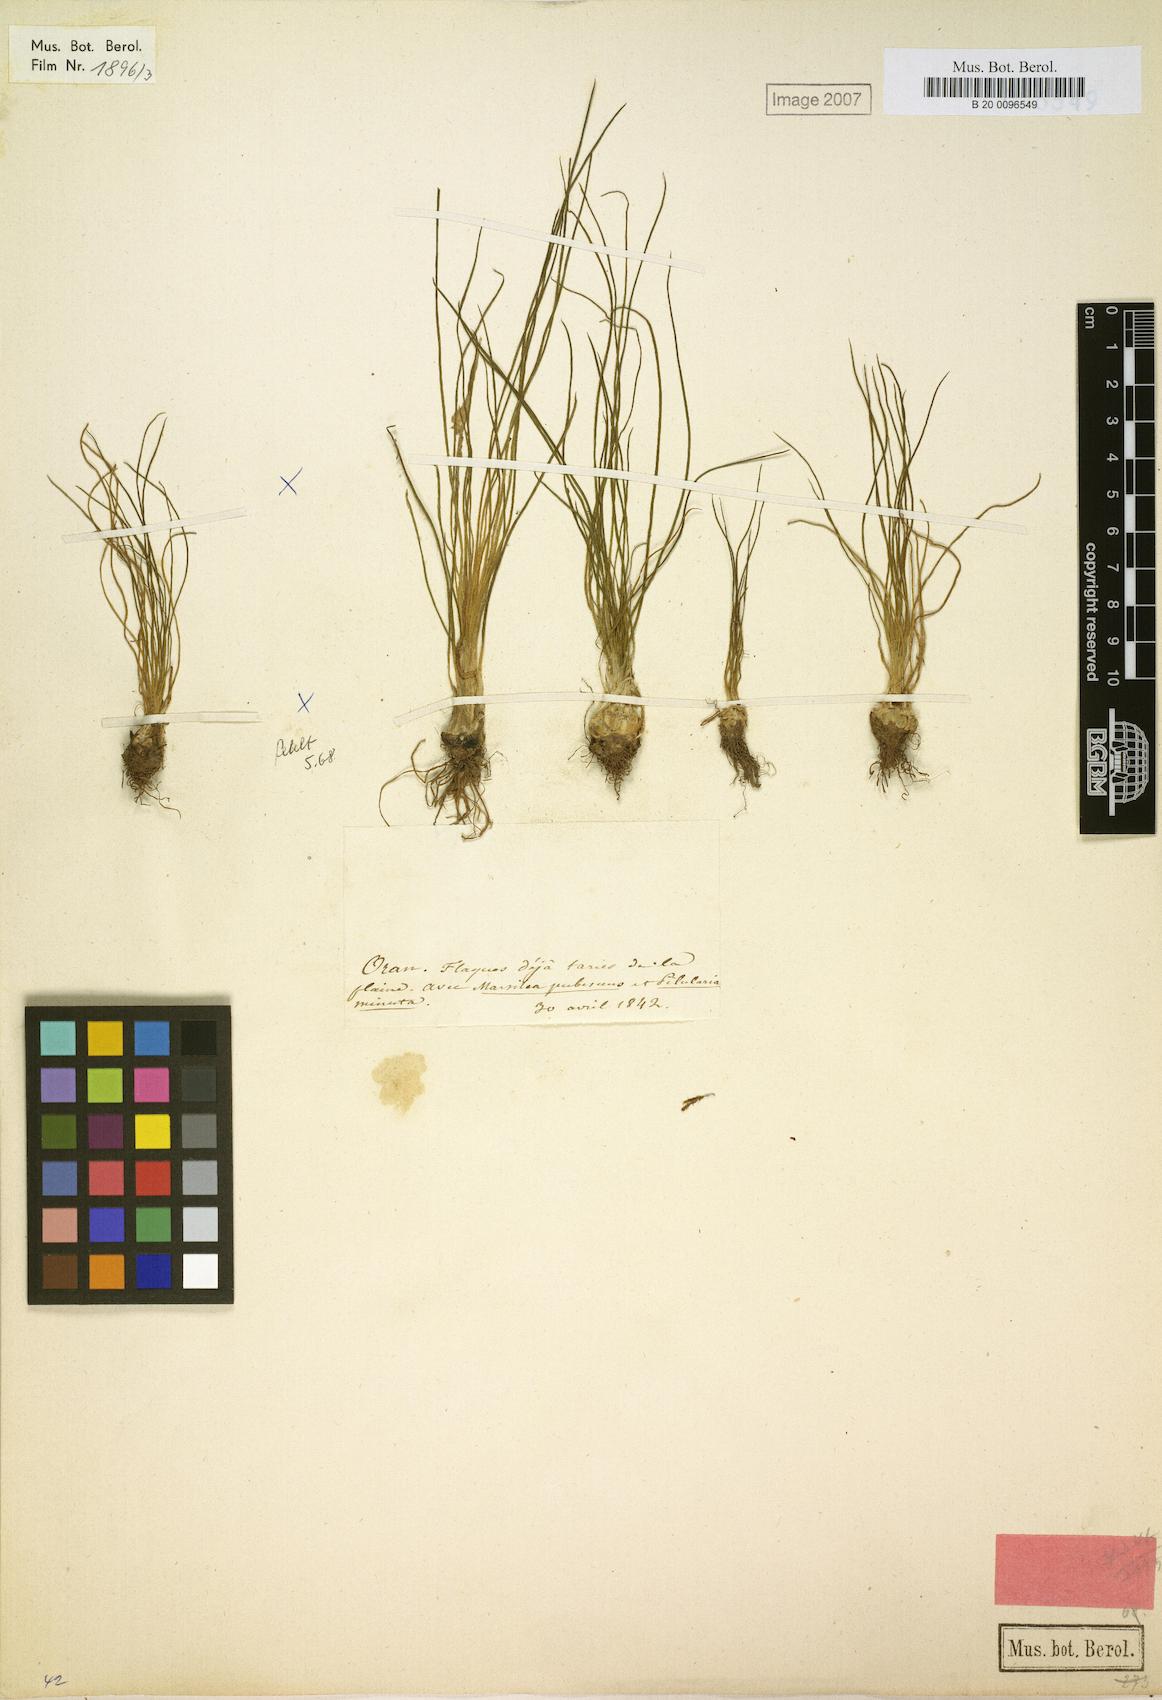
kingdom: Plantae
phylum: Tracheophyta
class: Lycopodiopsida
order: Isoetales
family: Isoetaceae
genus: Isoetes
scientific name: Isoetes longissima
